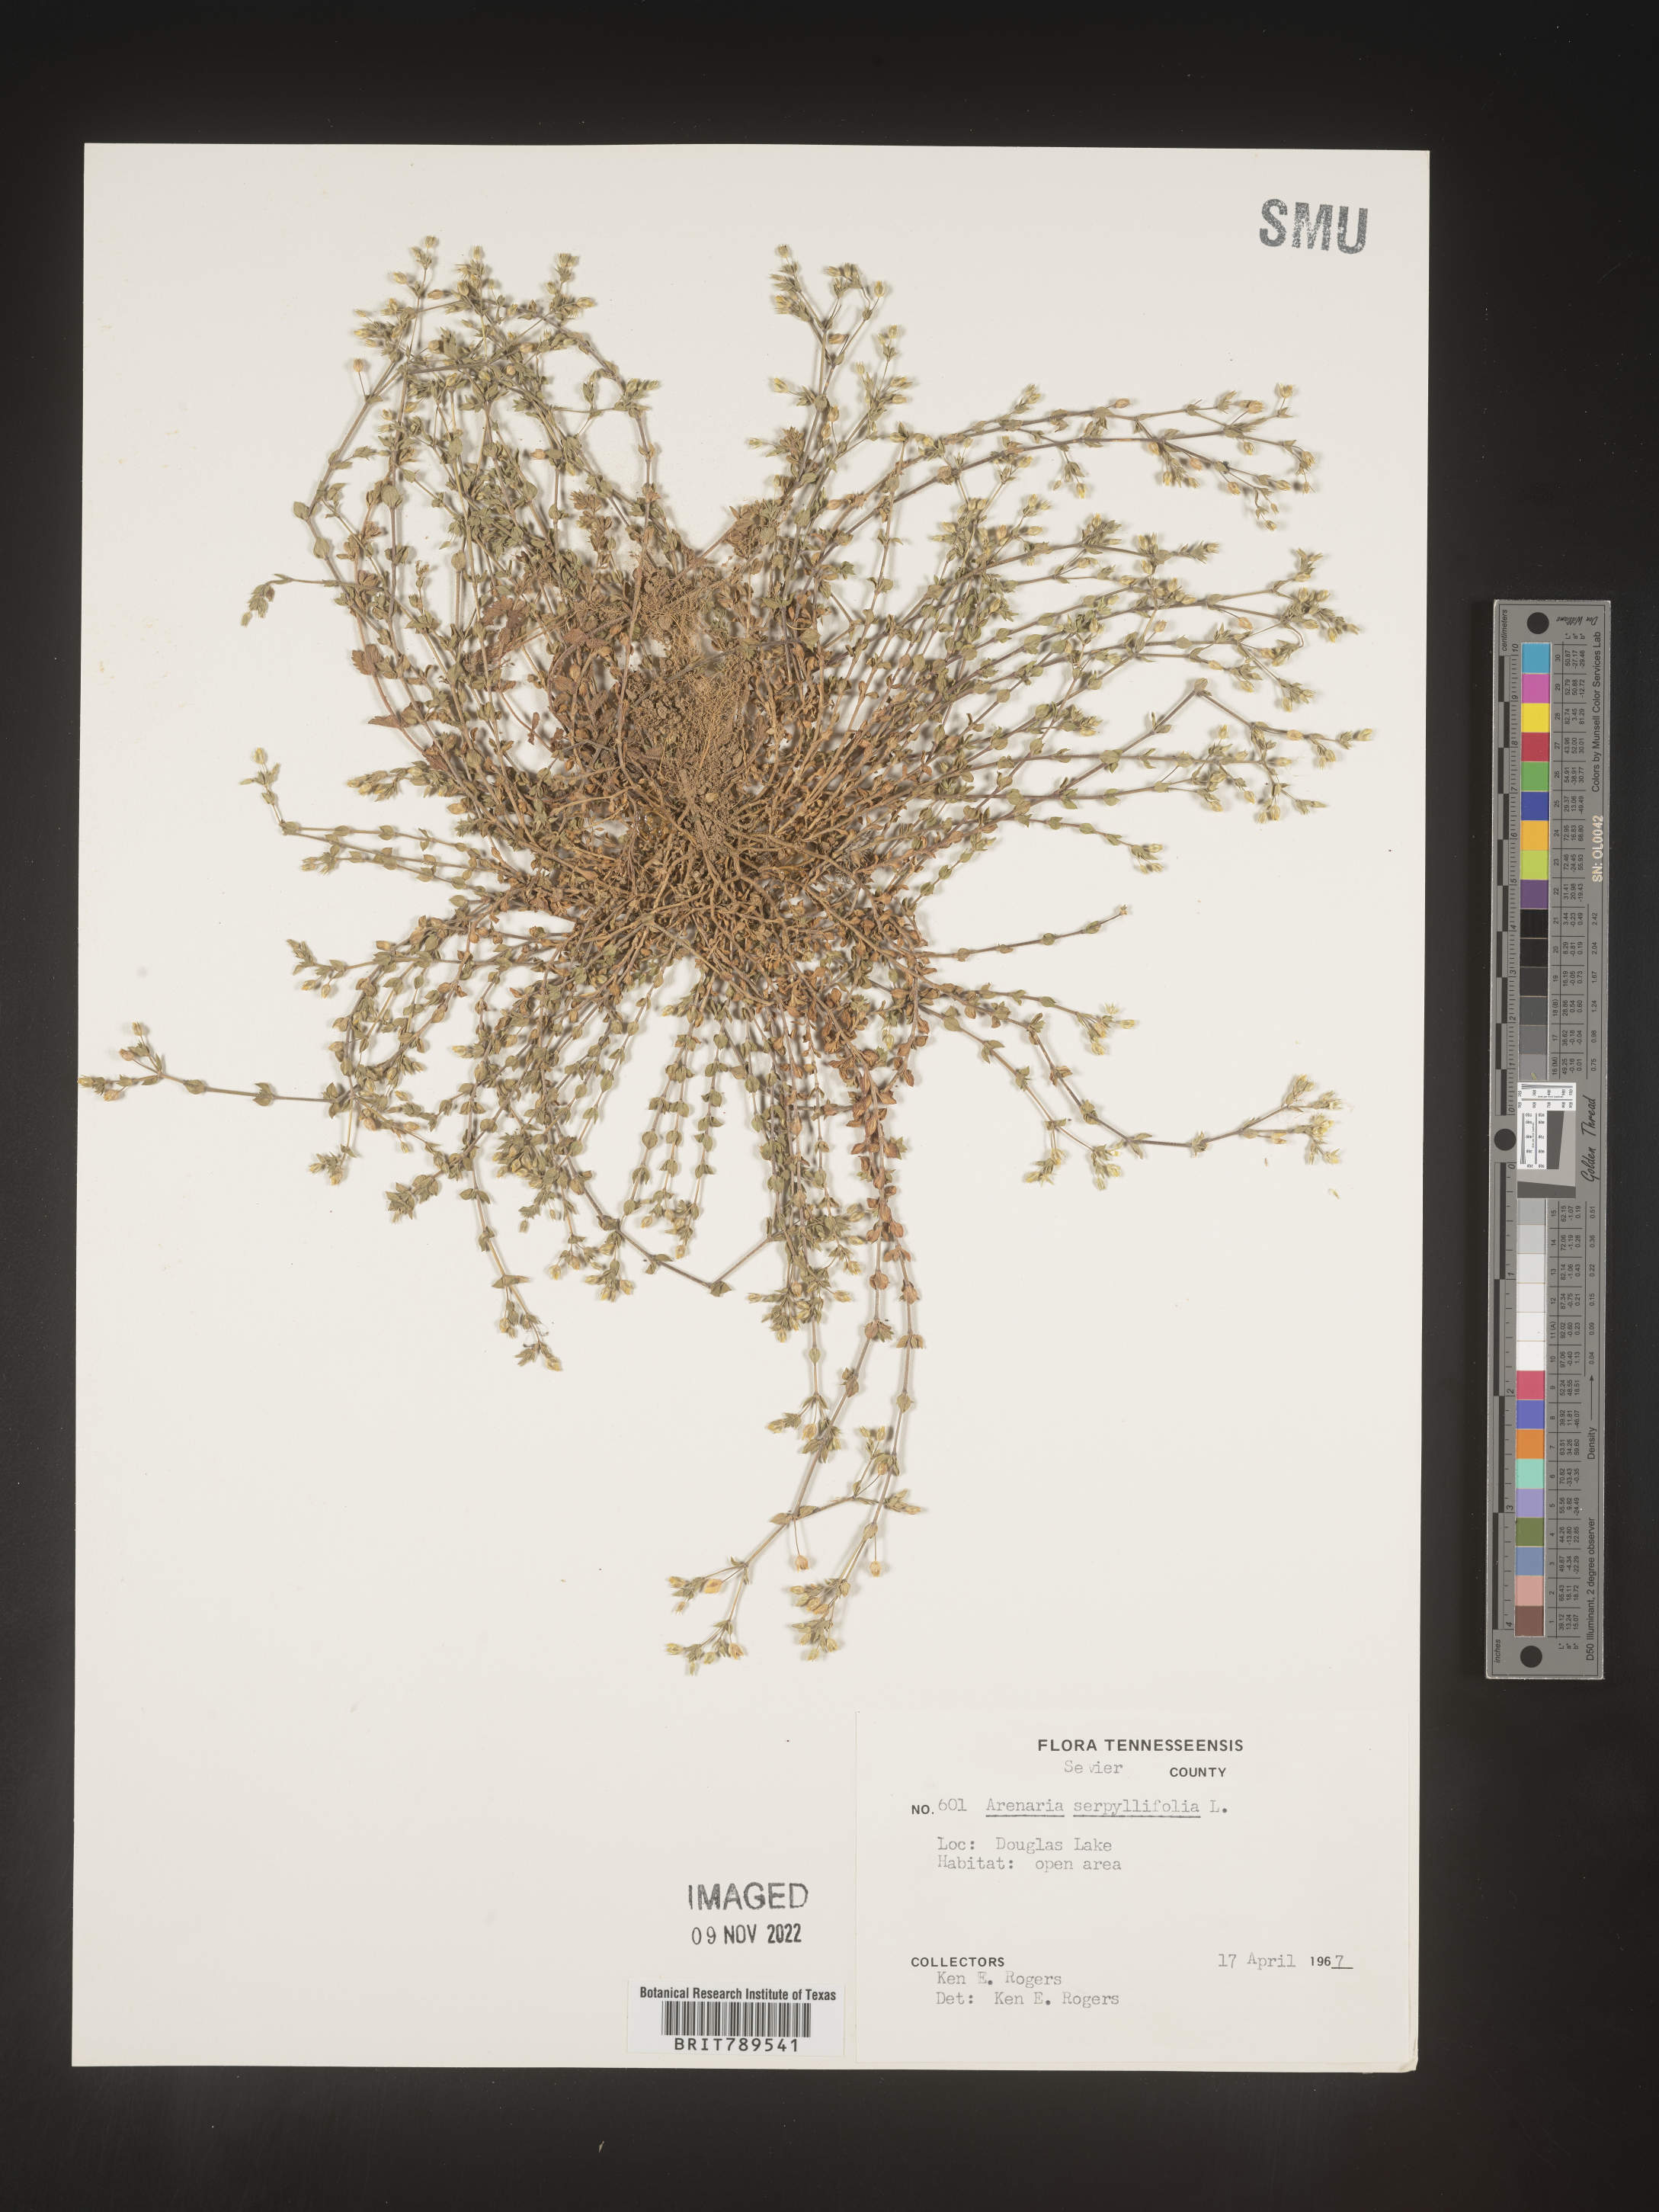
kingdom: Plantae
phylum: Tracheophyta
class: Magnoliopsida
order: Caryophyllales
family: Caryophyllaceae
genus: Arenaria
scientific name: Arenaria serpyllifolia
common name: Thyme-leaved sandwort
